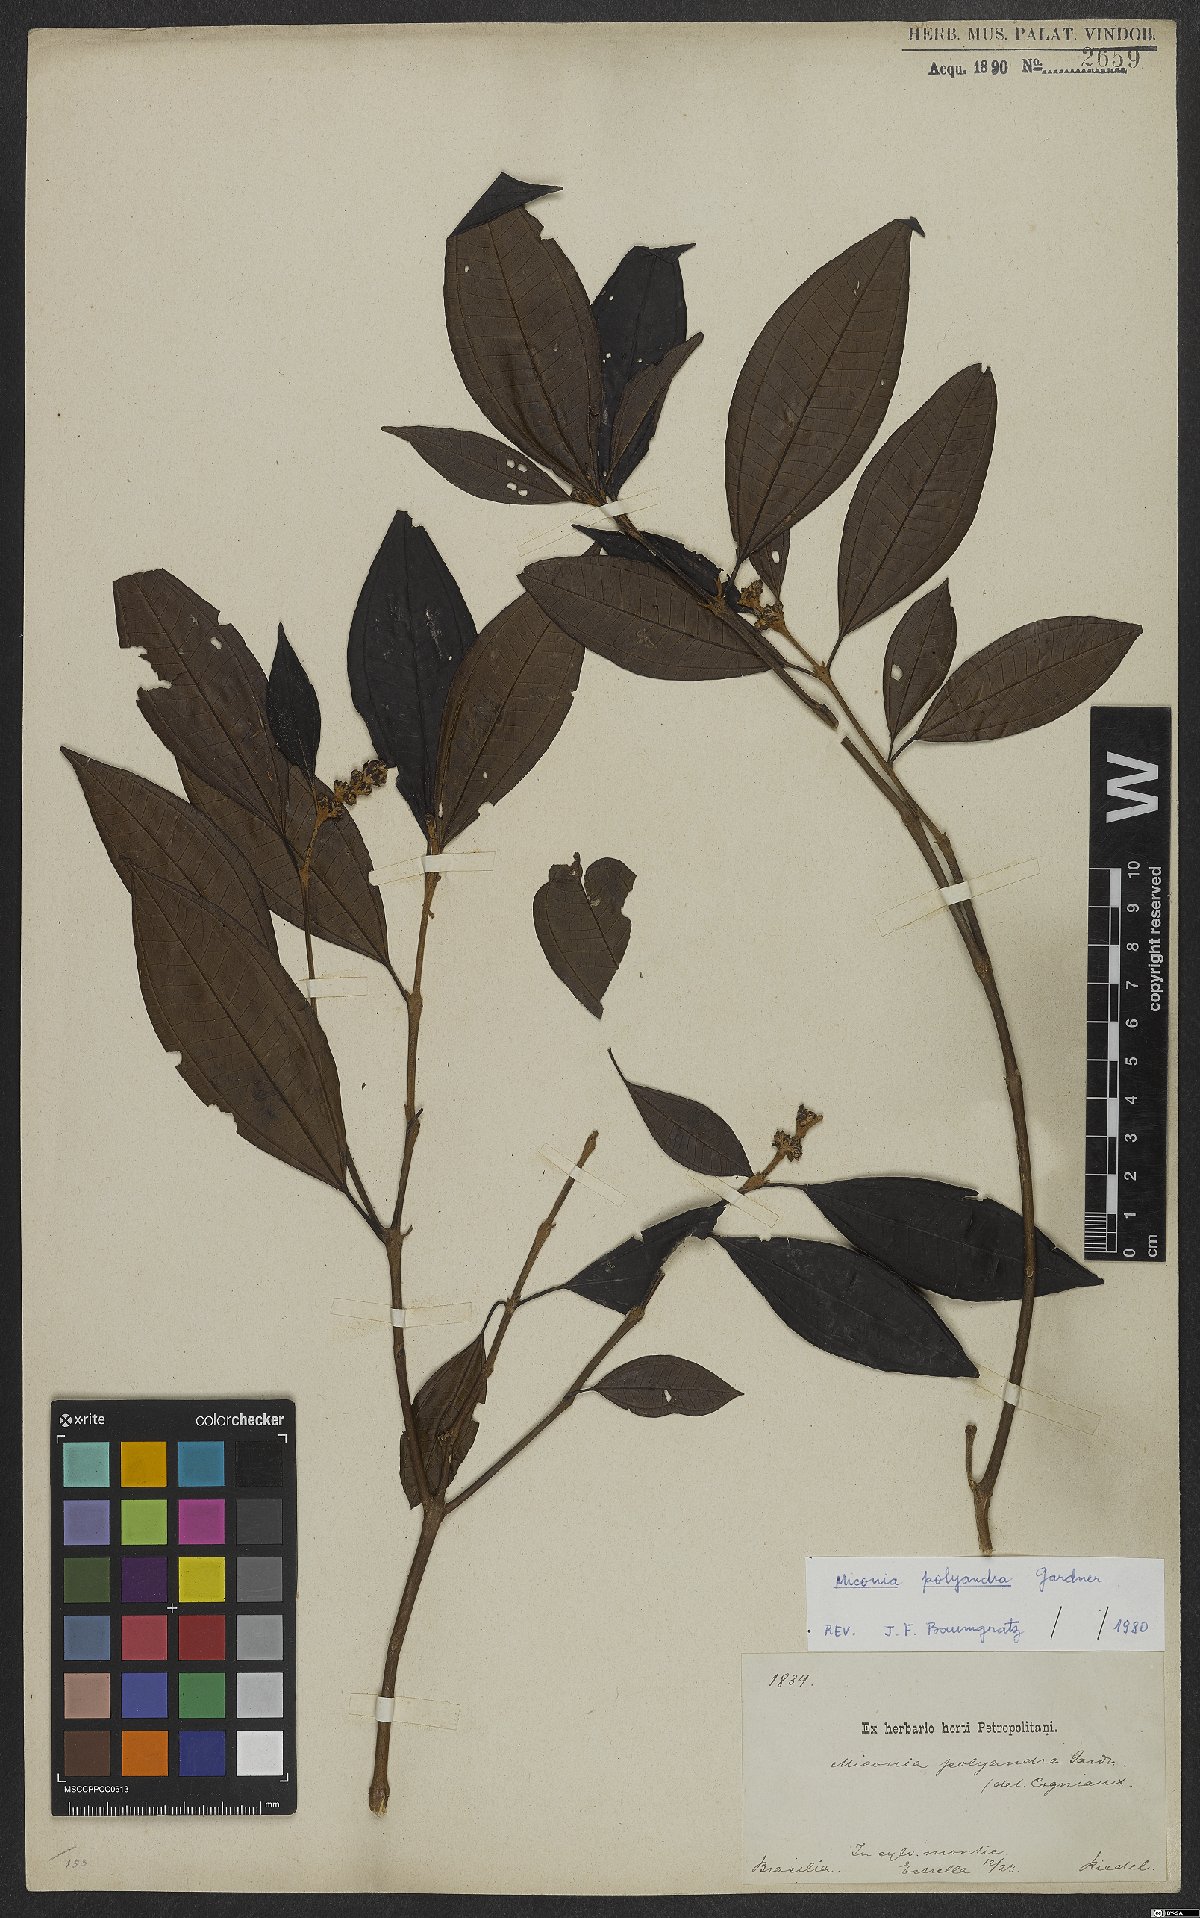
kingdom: Plantae
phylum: Tracheophyta
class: Magnoliopsida
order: Myrtales
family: Melastomataceae
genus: Miconia
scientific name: Miconia polyandra
